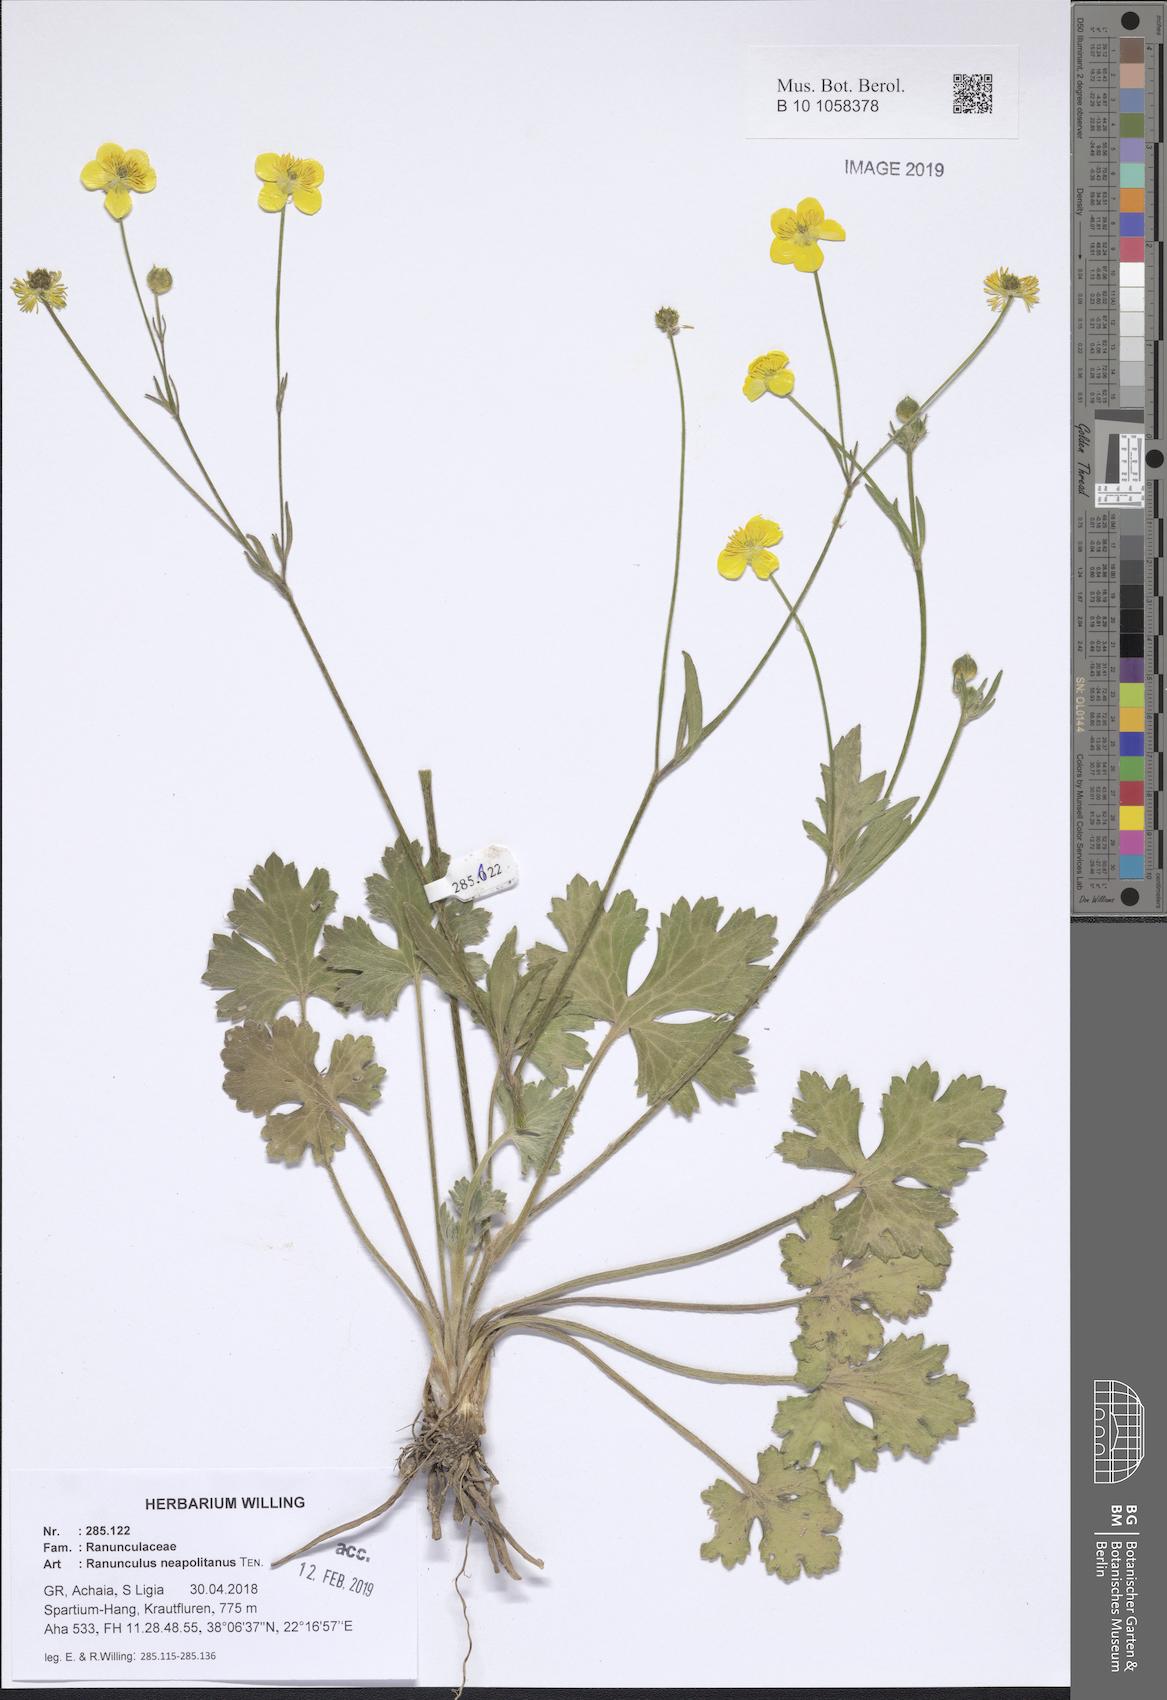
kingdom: Plantae
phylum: Tracheophyta
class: Magnoliopsida
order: Ranunculales
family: Ranunculaceae
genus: Ranunculus
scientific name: Ranunculus neapolitanus
